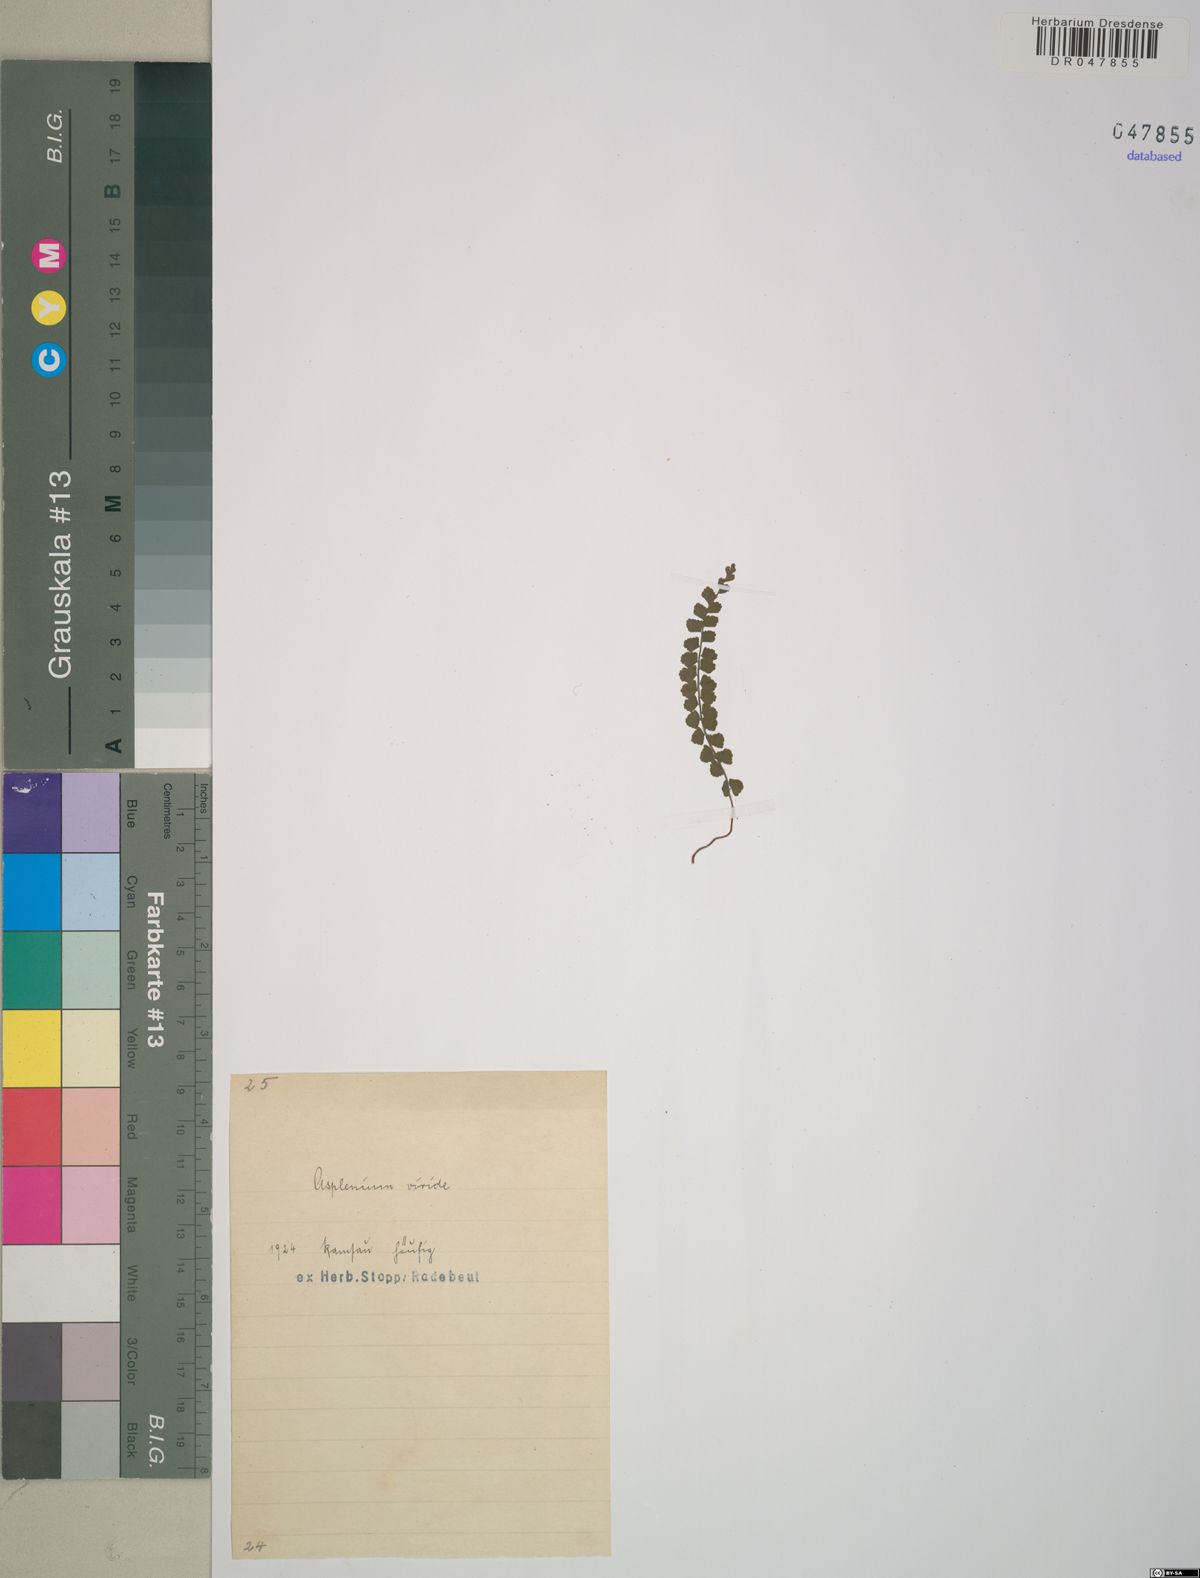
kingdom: Plantae
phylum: Tracheophyta
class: Polypodiopsida
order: Polypodiales
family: Aspleniaceae
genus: Asplenium
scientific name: Asplenium viride
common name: Green spleenwort
